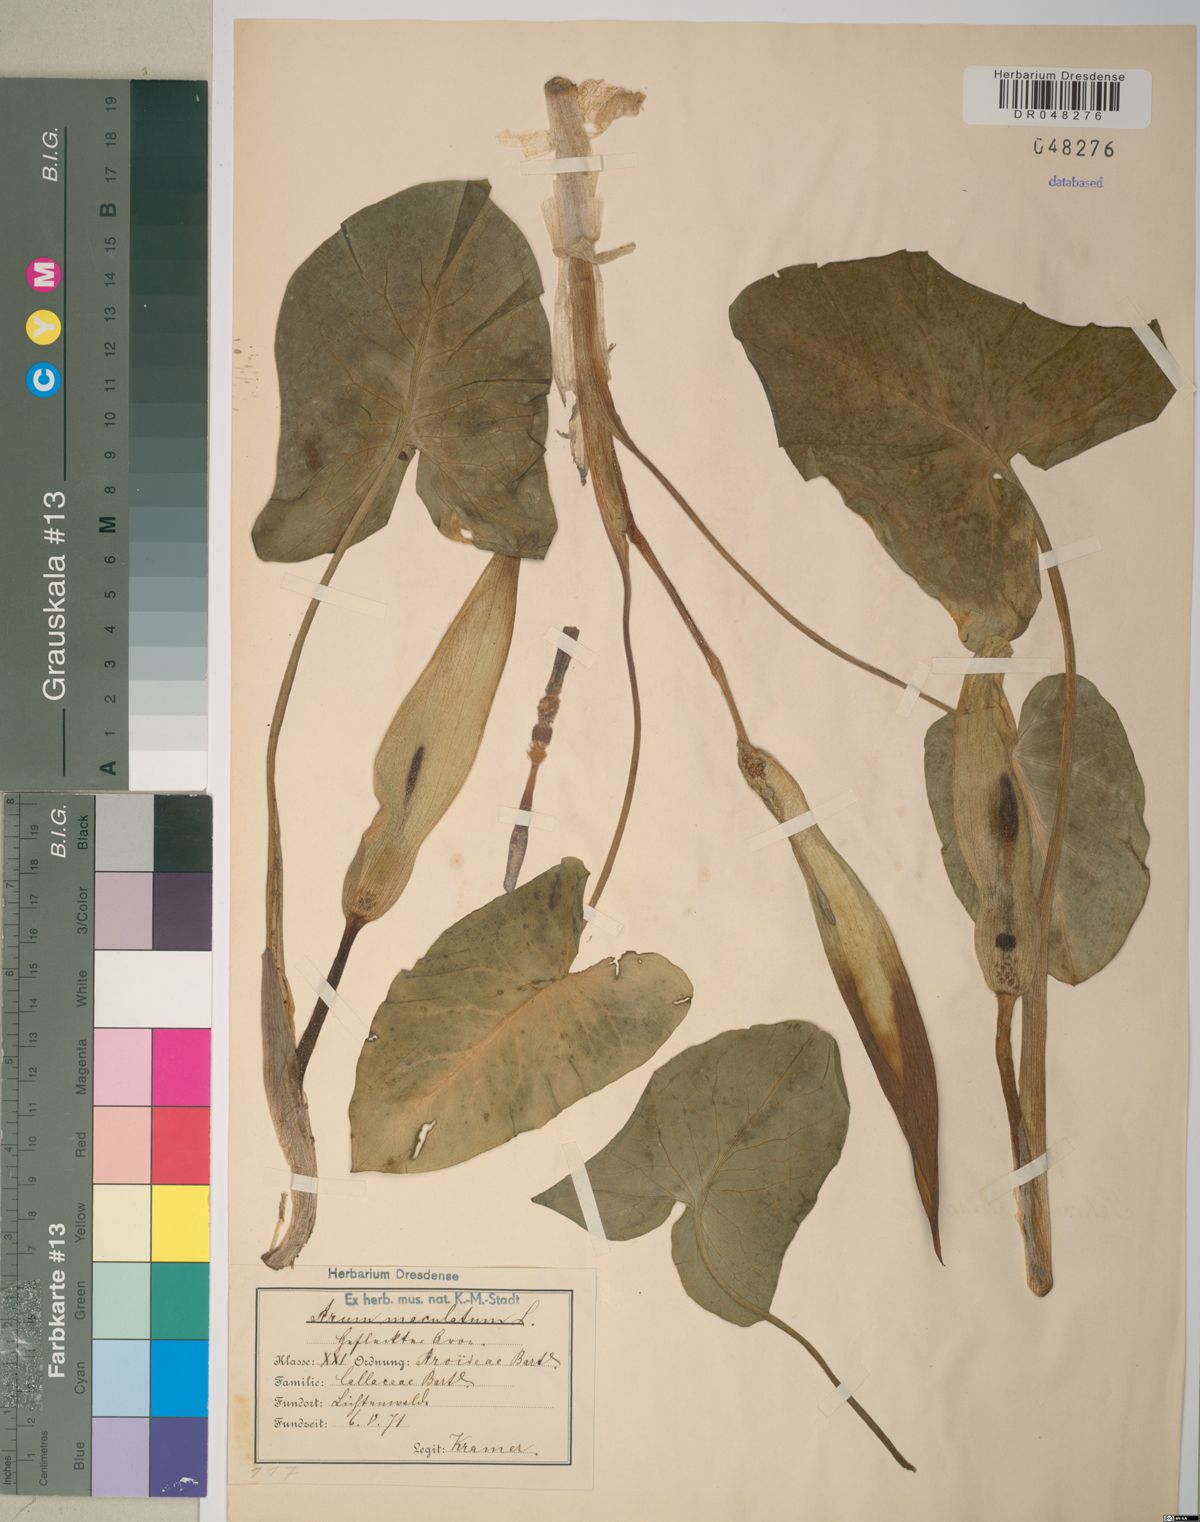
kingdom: Plantae
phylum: Tracheophyta
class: Liliopsida
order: Alismatales
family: Araceae
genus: Arum
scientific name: Arum maculatum
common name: Lords-and-ladies
